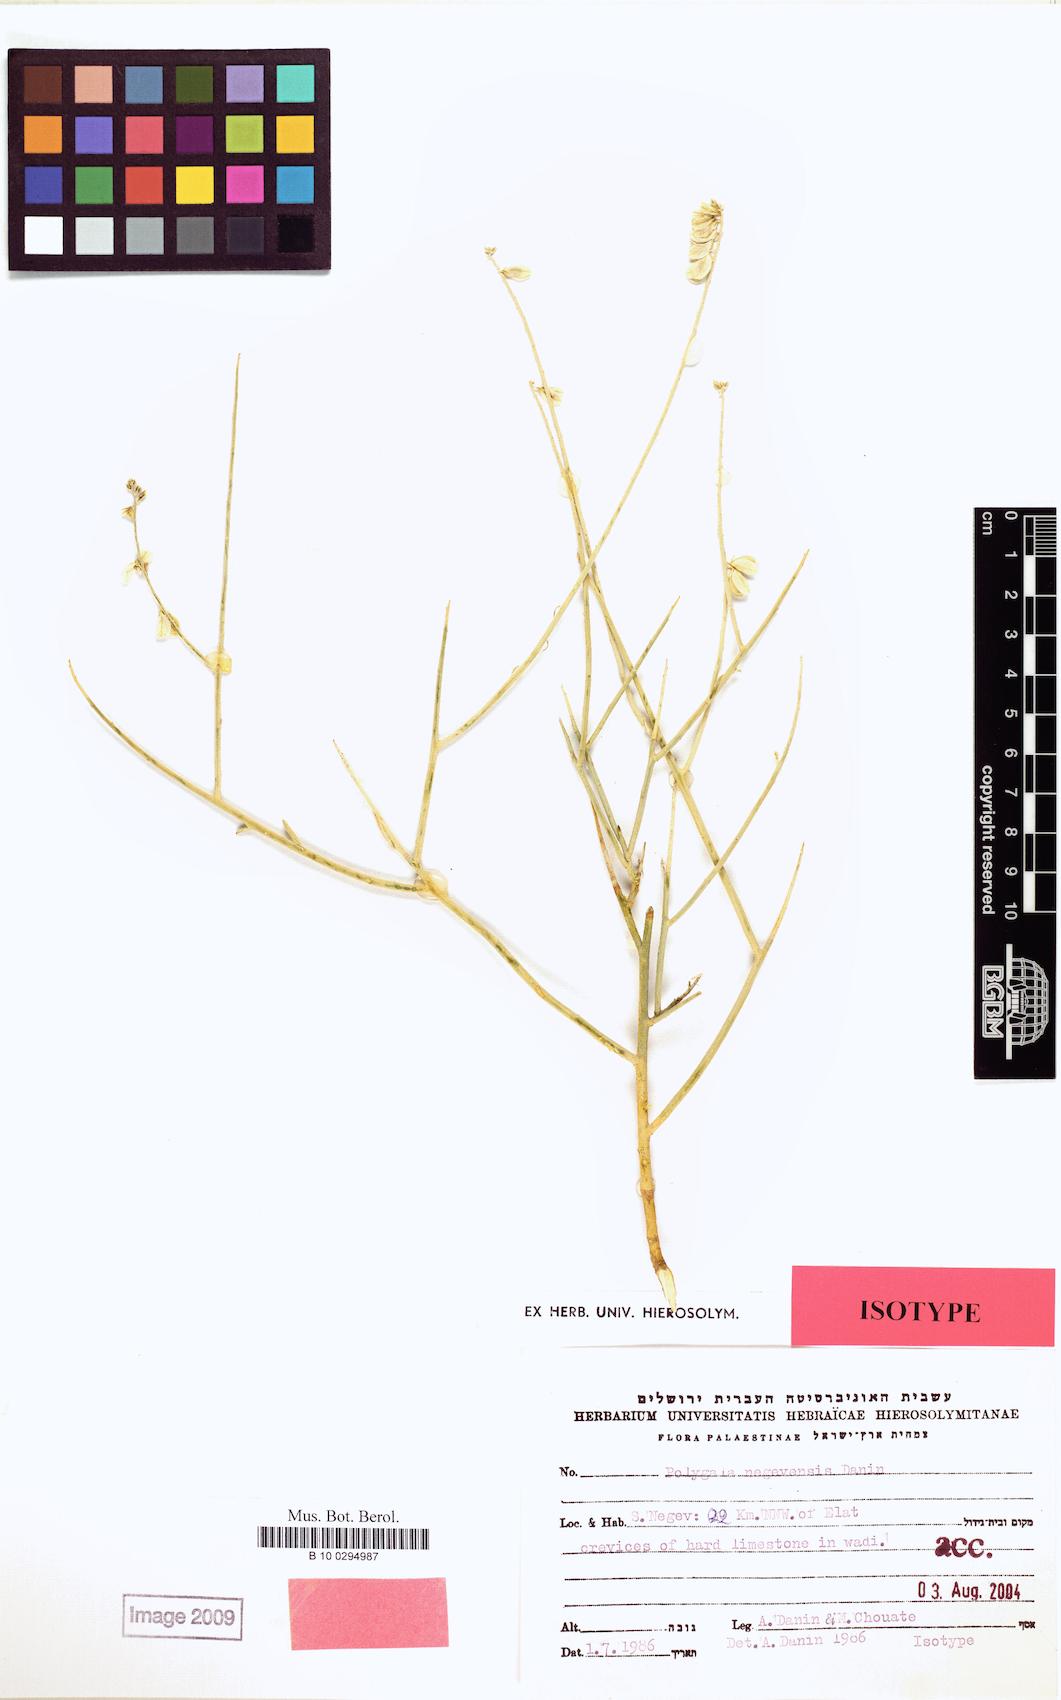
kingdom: Plantae
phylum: Tracheophyta
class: Magnoliopsida
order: Fabales
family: Polygalaceae
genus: Polygala
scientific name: Polygala sinaica
